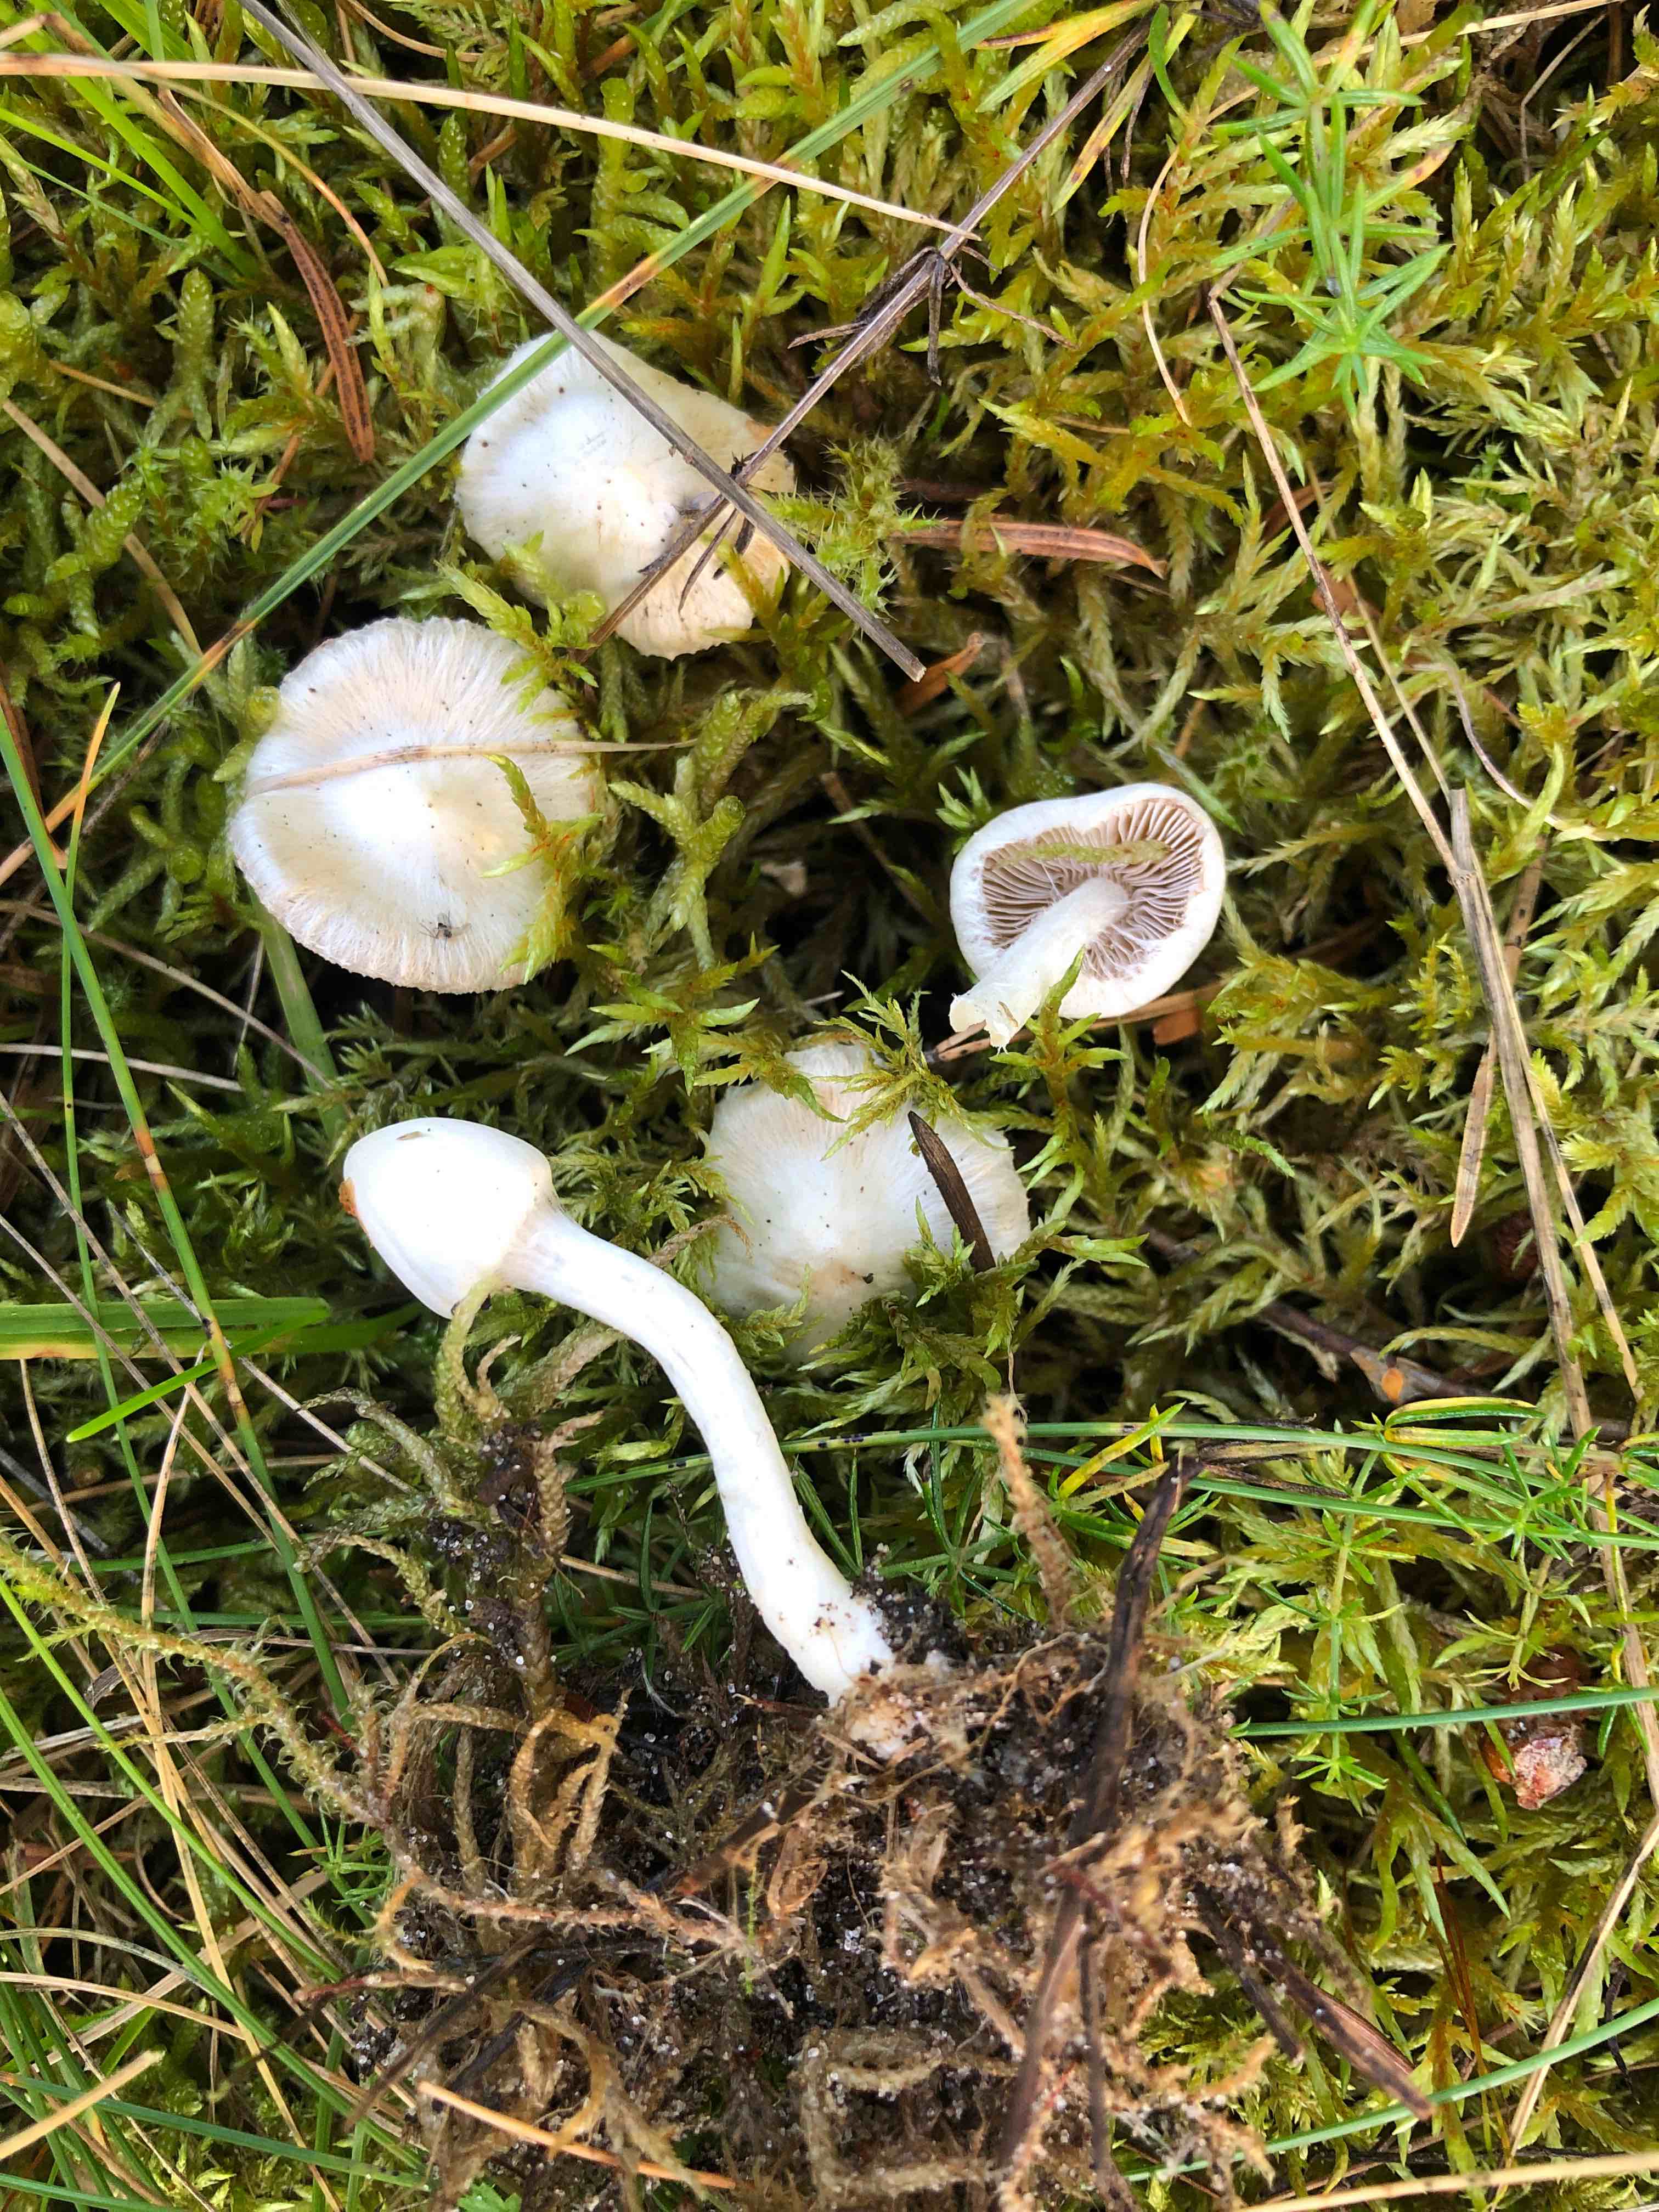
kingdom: Fungi
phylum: Basidiomycota
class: Agaricomycetes
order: Agaricales
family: Inocybaceae
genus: Inocybe
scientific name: Inocybe
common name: almindelig trævlhat
